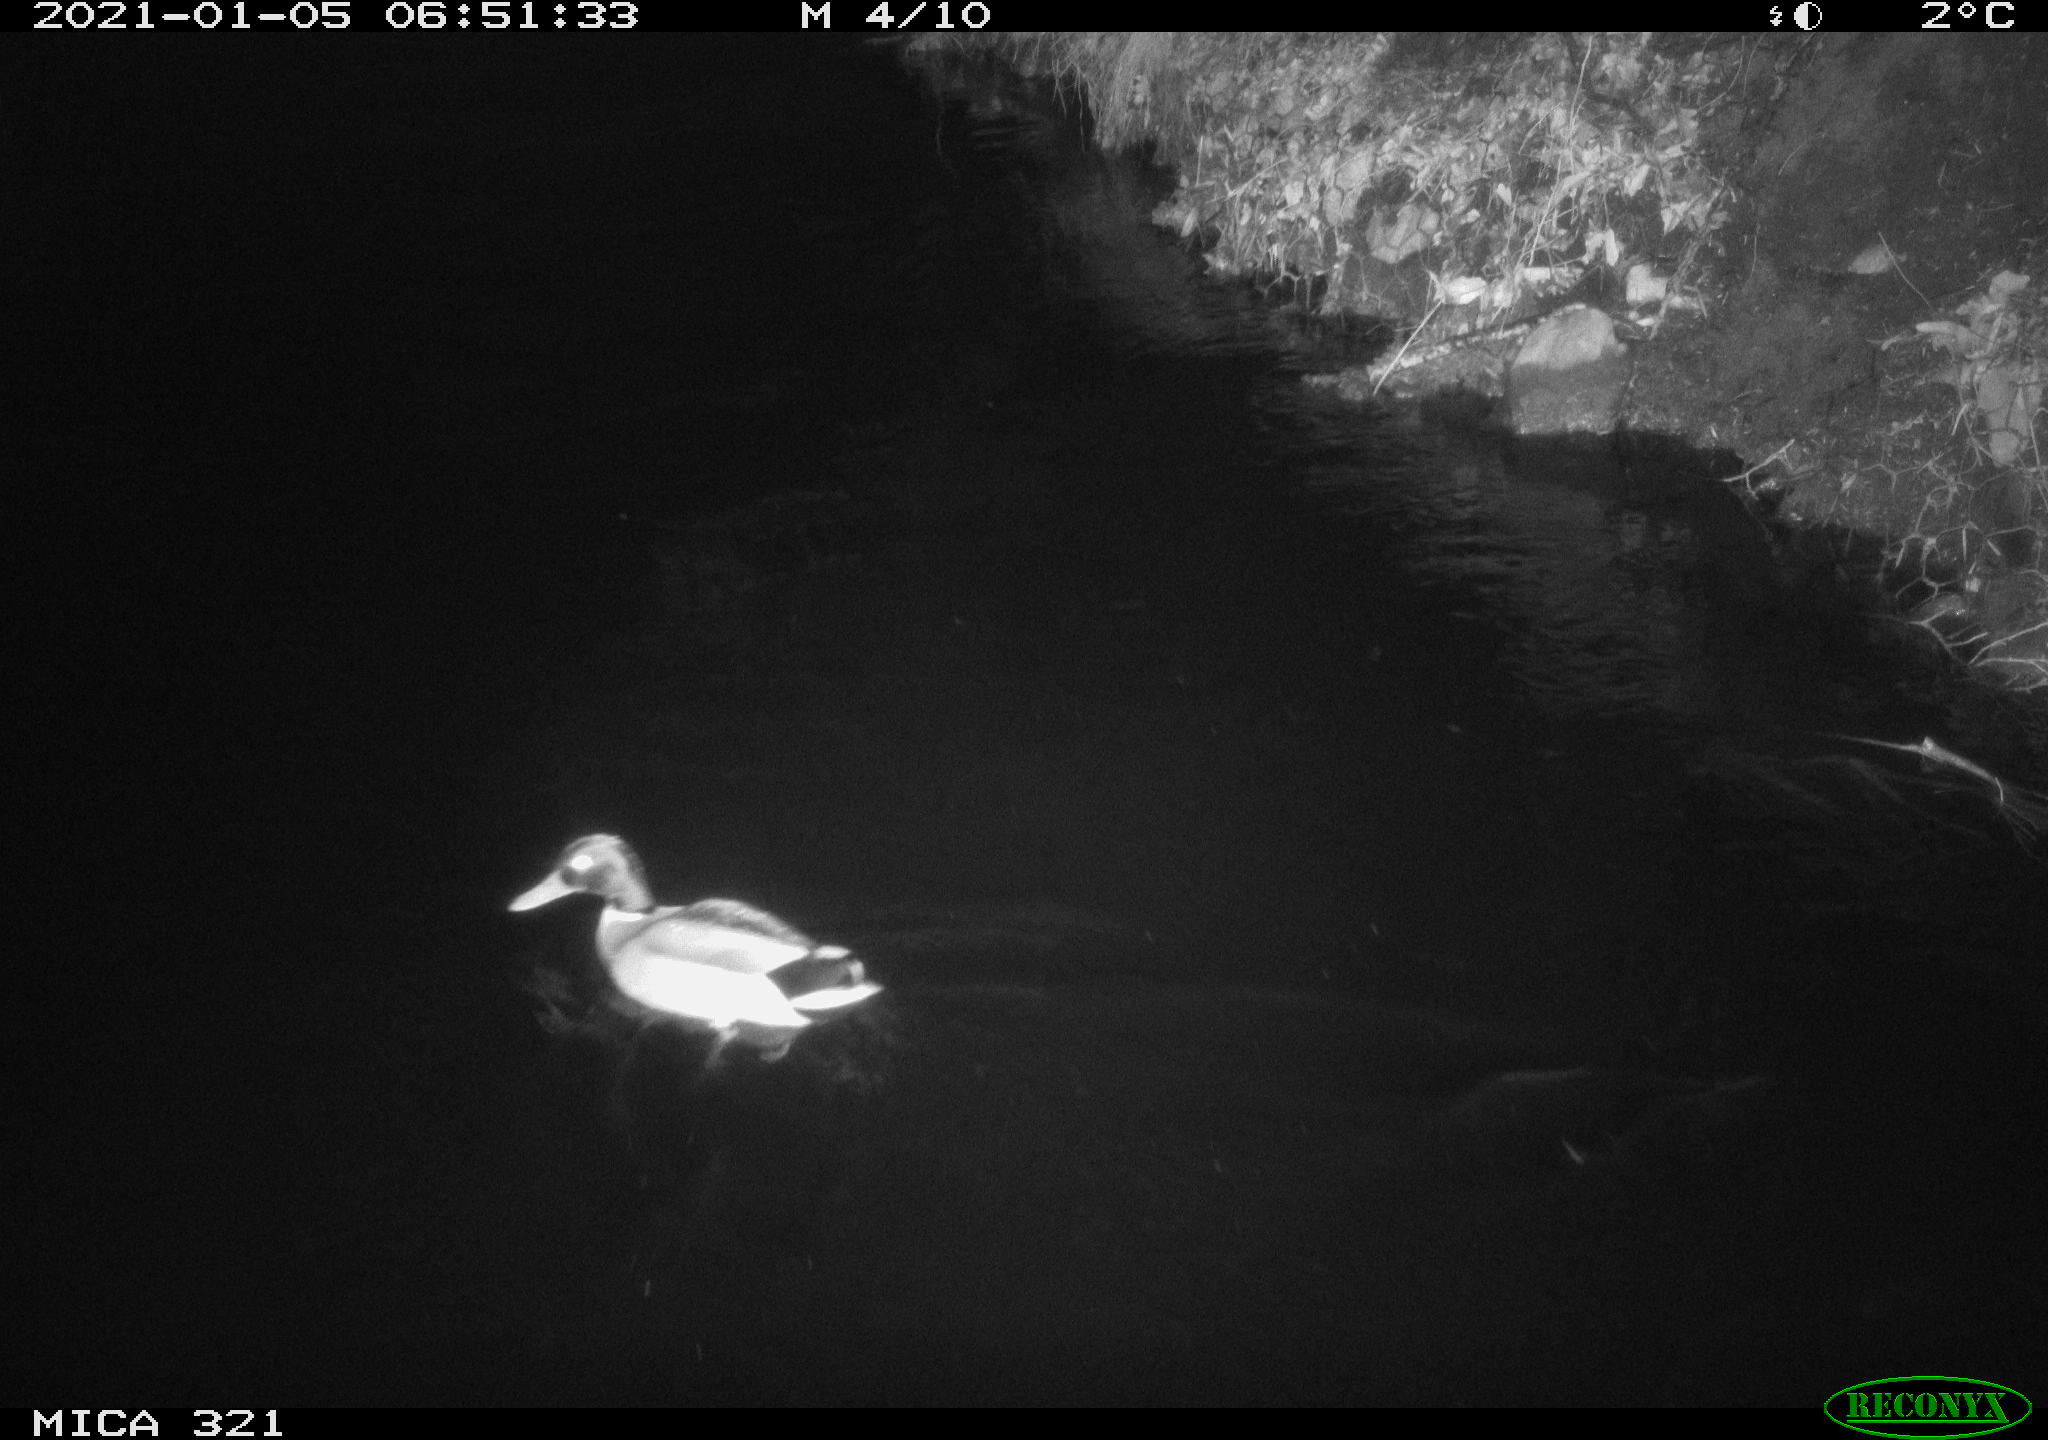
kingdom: Animalia
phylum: Chordata
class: Aves
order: Anseriformes
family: Anatidae
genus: Anas
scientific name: Anas platyrhynchos
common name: Mallard
